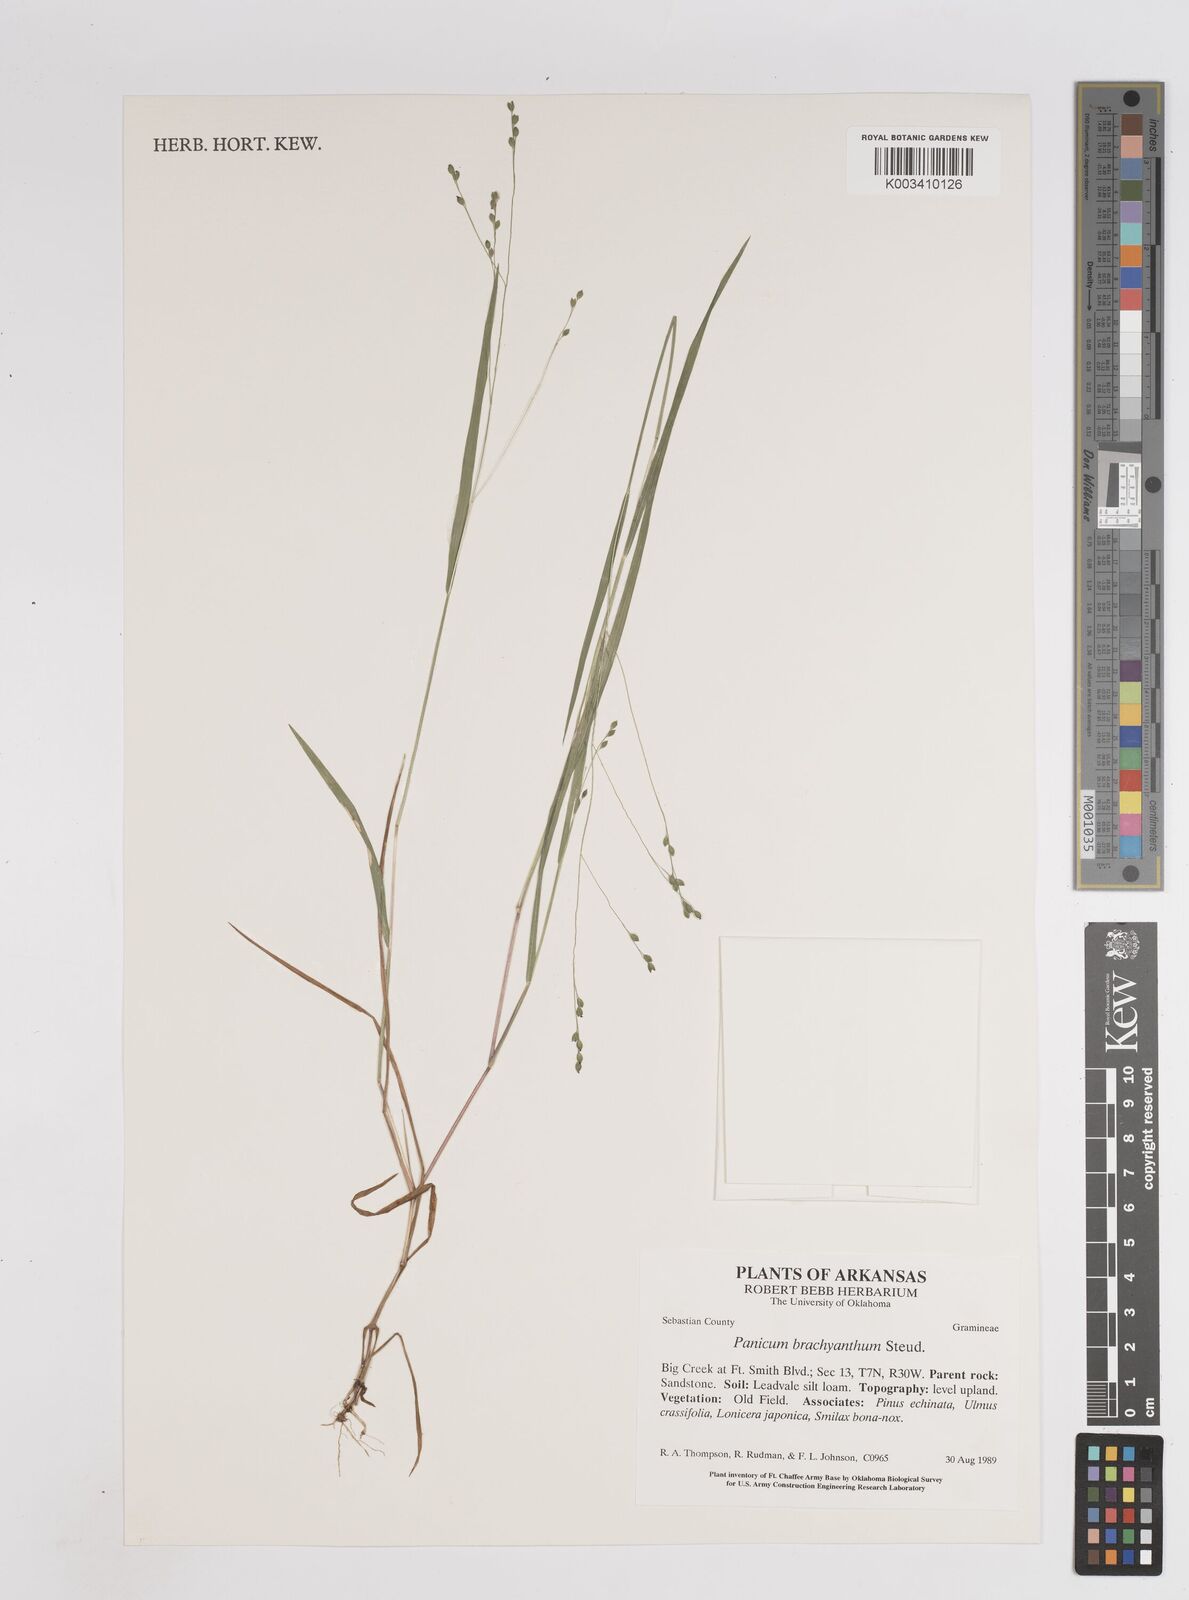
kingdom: Plantae
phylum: Tracheophyta
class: Liliopsida
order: Poales
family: Poaceae
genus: Kellochloa
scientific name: Kellochloa brachyantha
